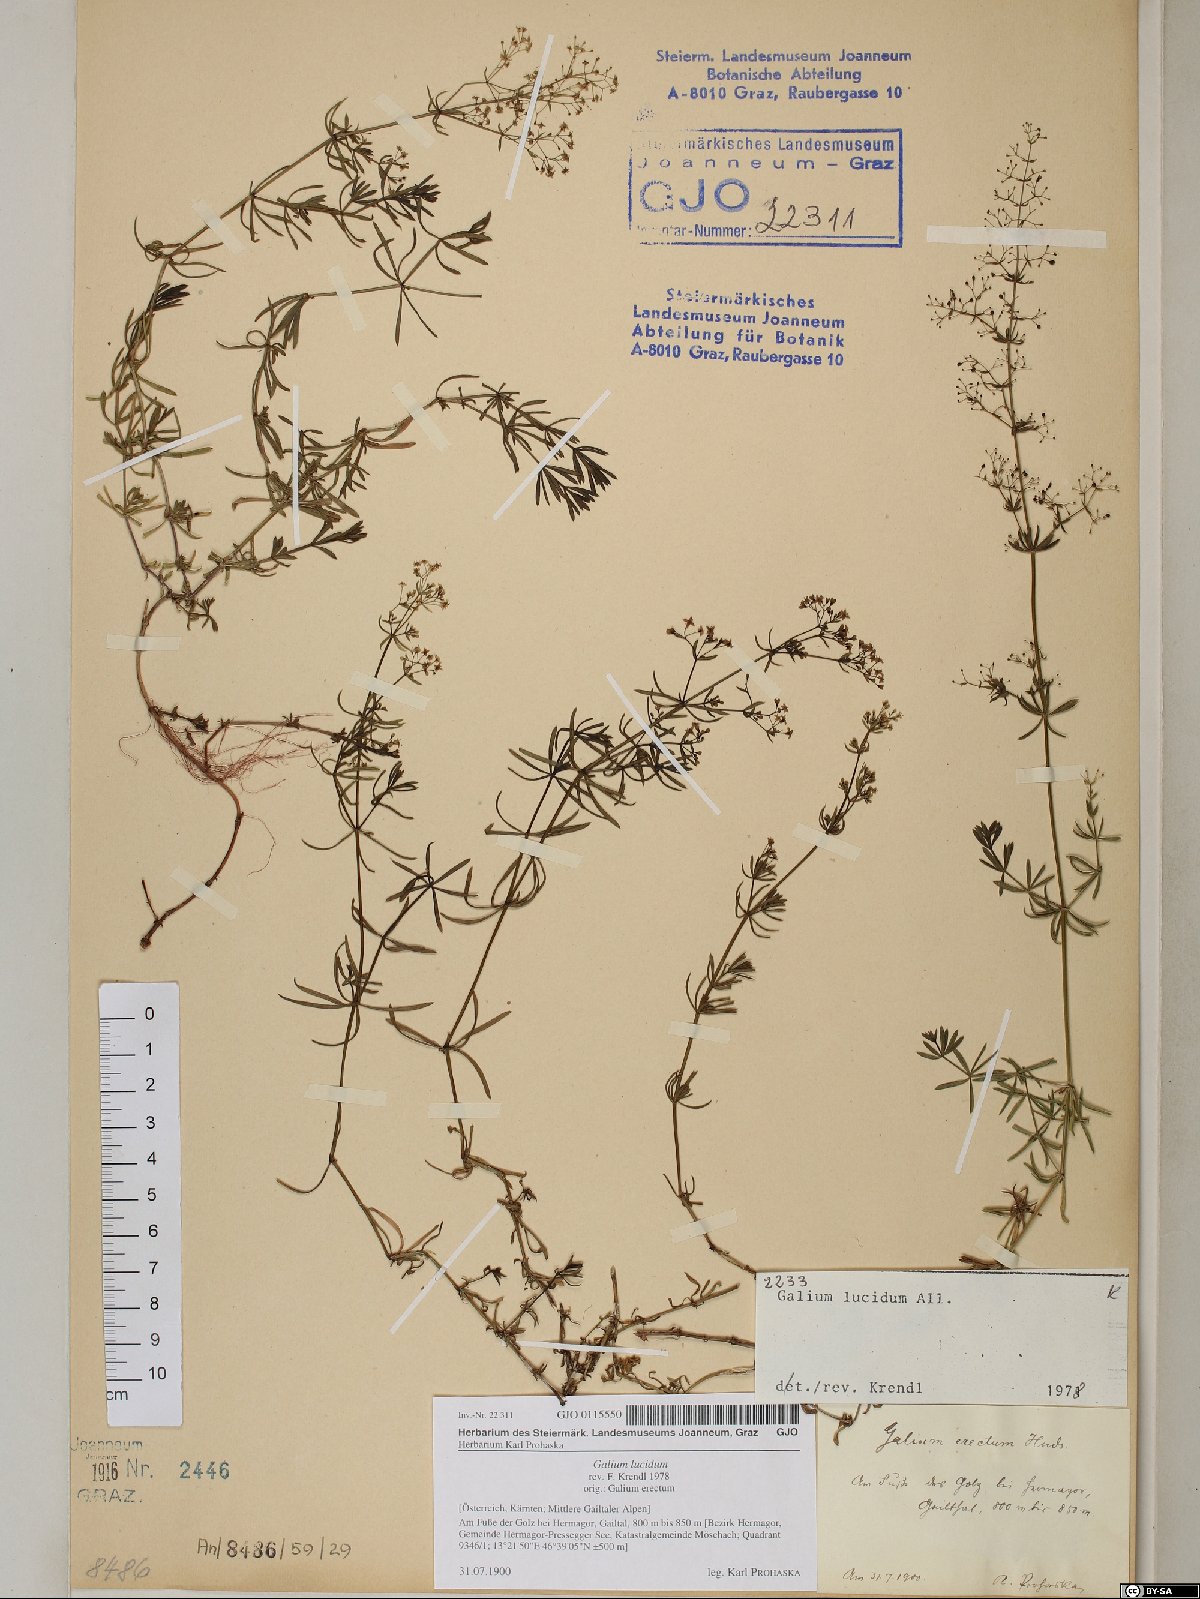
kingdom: Plantae
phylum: Tracheophyta
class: Magnoliopsida
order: Gentianales
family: Rubiaceae
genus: Galium
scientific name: Galium lucidum
